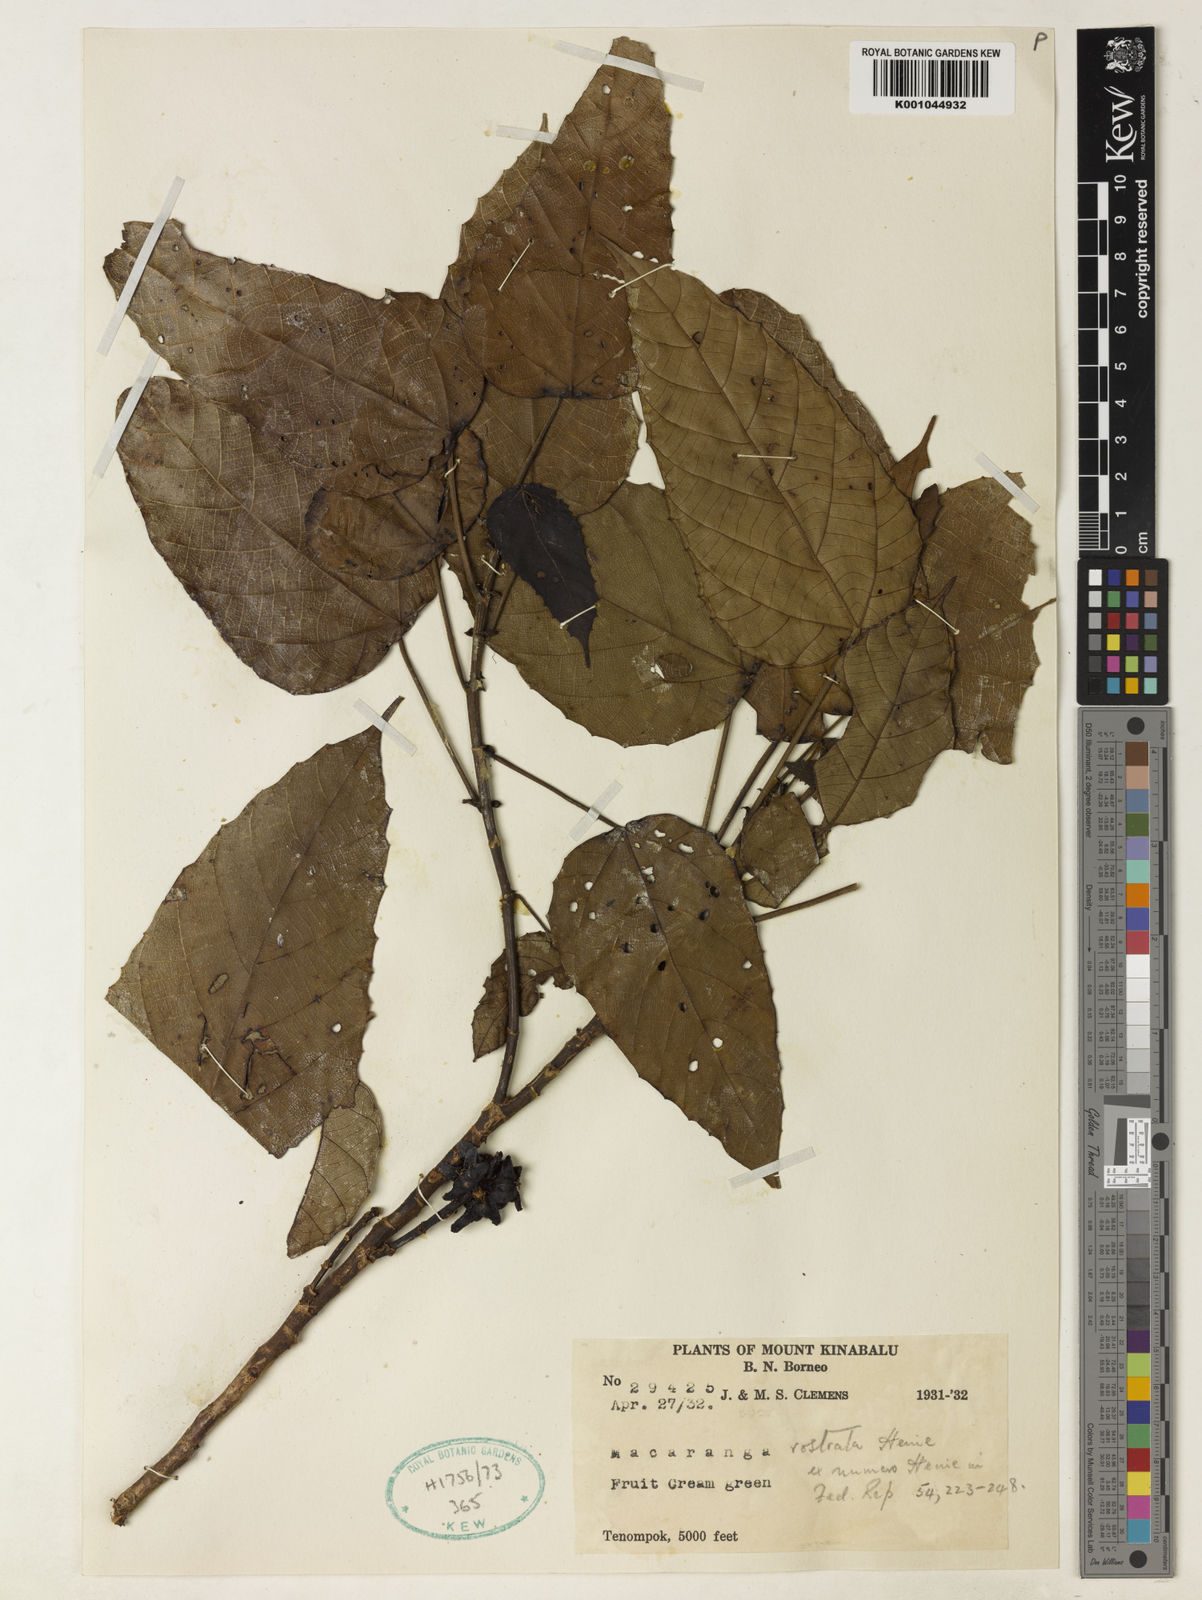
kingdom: Plantae
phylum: Tracheophyta
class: Magnoliopsida
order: Malpighiales
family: Euphorbiaceae
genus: Macaranga
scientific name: Macaranga rostrata
